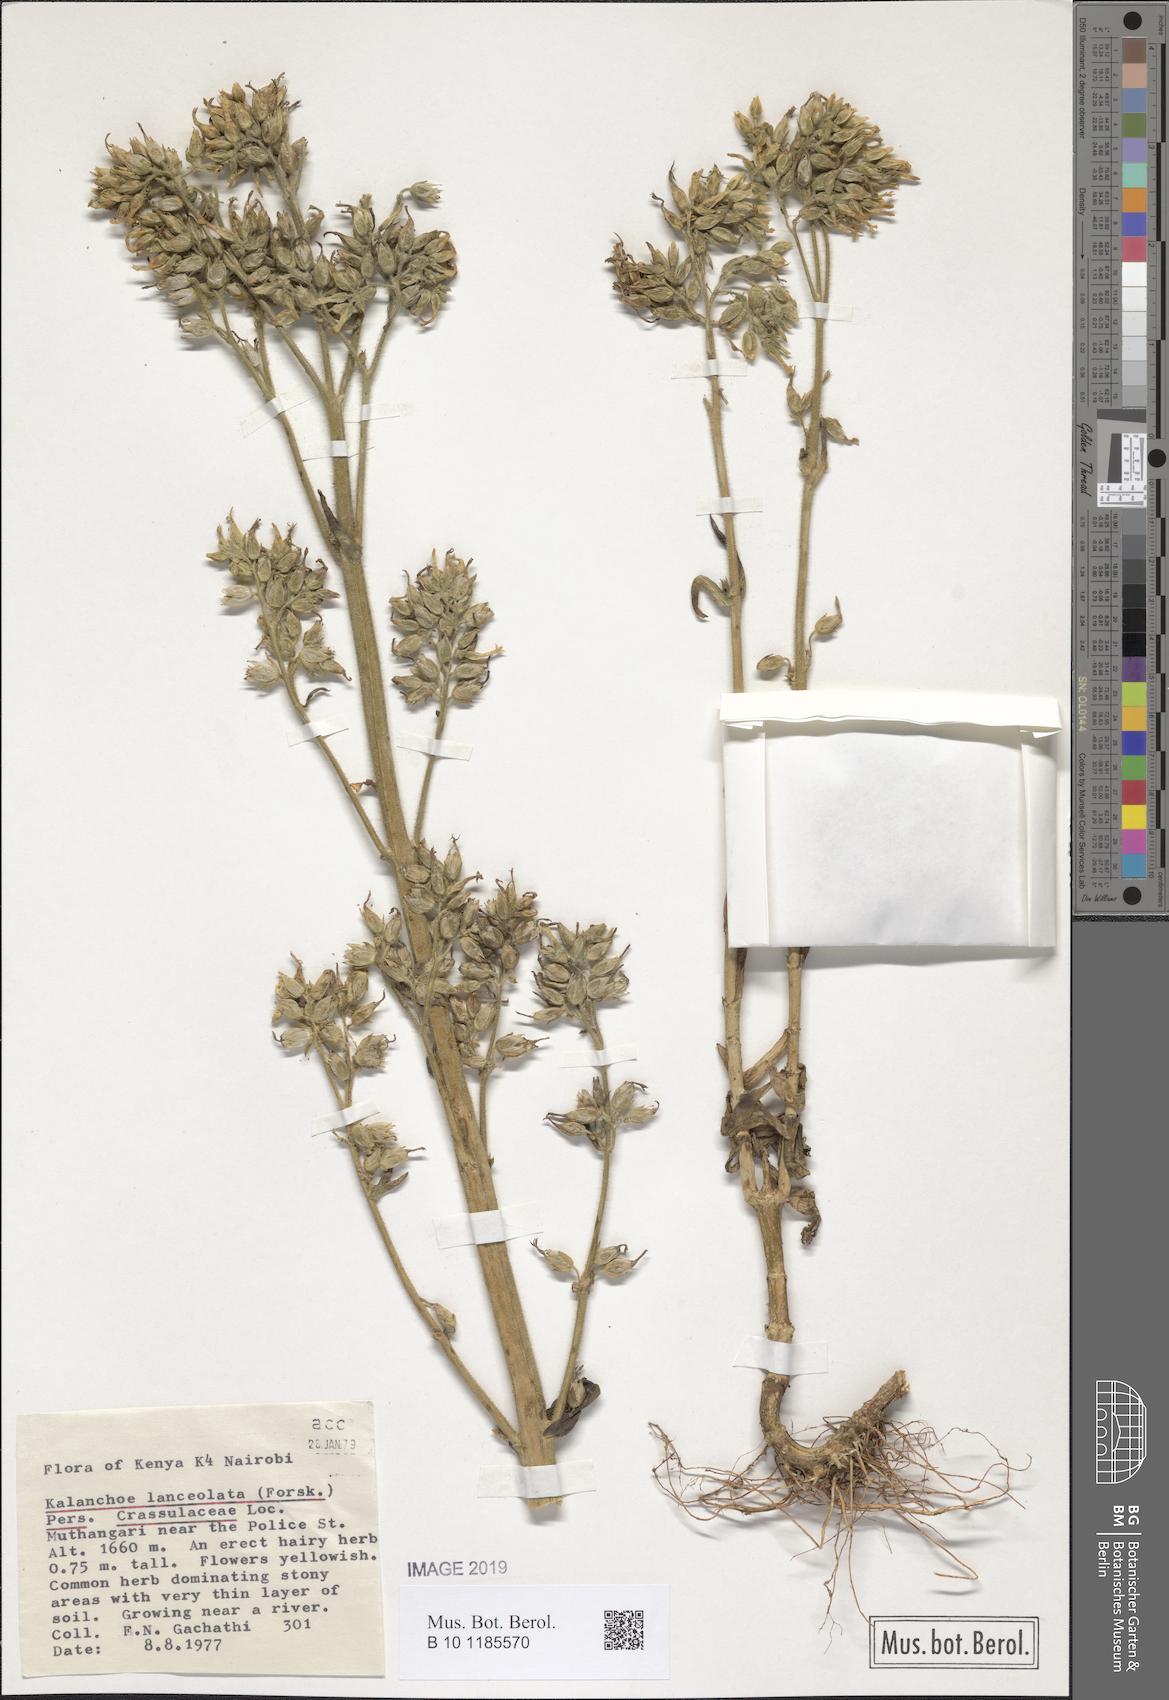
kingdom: Plantae
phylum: Tracheophyta
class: Magnoliopsida
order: Saxifragales
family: Crassulaceae
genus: Kalanchoe
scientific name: Kalanchoe lanceolata
